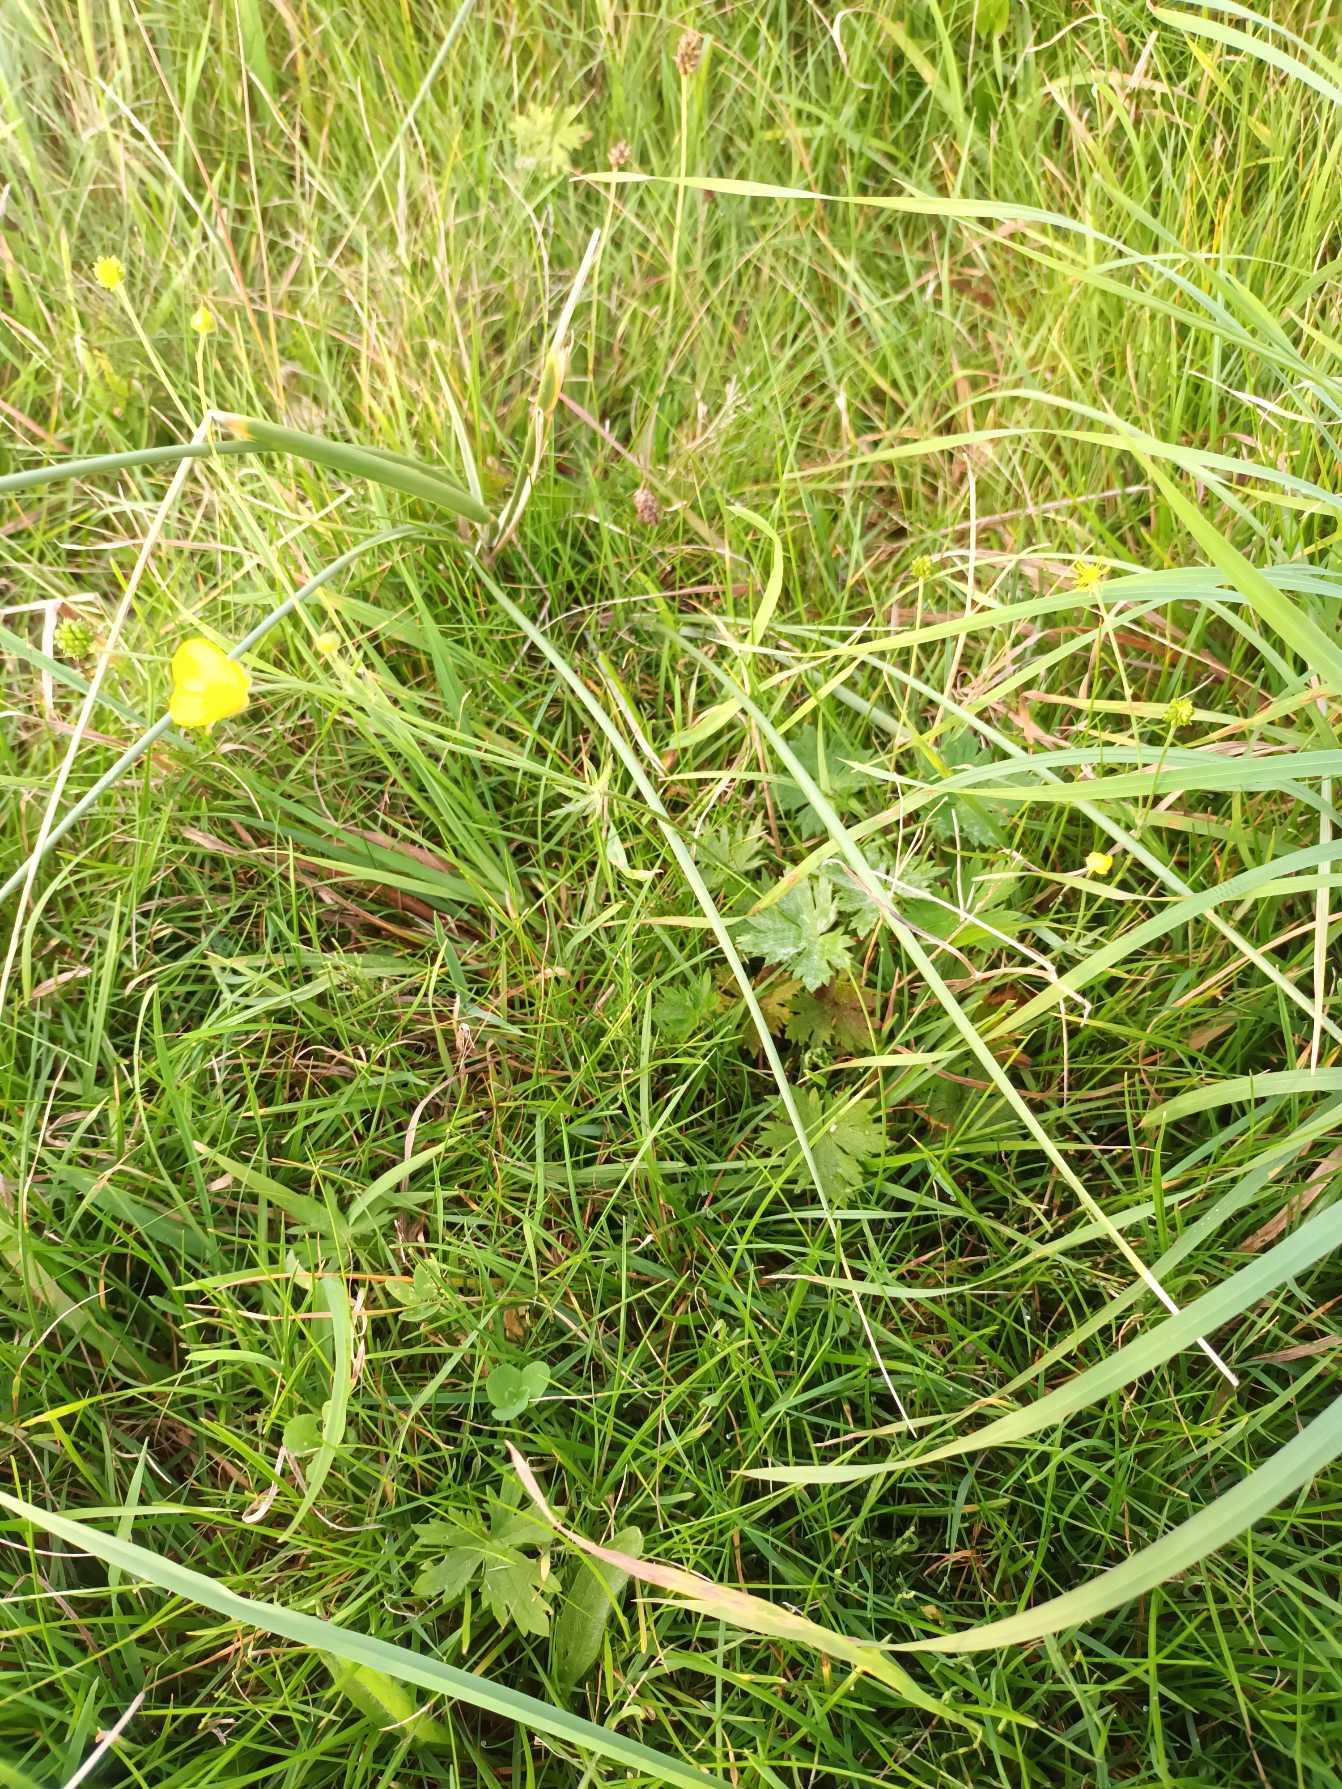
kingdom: Plantae
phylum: Tracheophyta
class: Magnoliopsida
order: Ranunculales
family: Ranunculaceae
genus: Ranunculus
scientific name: Ranunculus acris
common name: Bidende ranunkel
